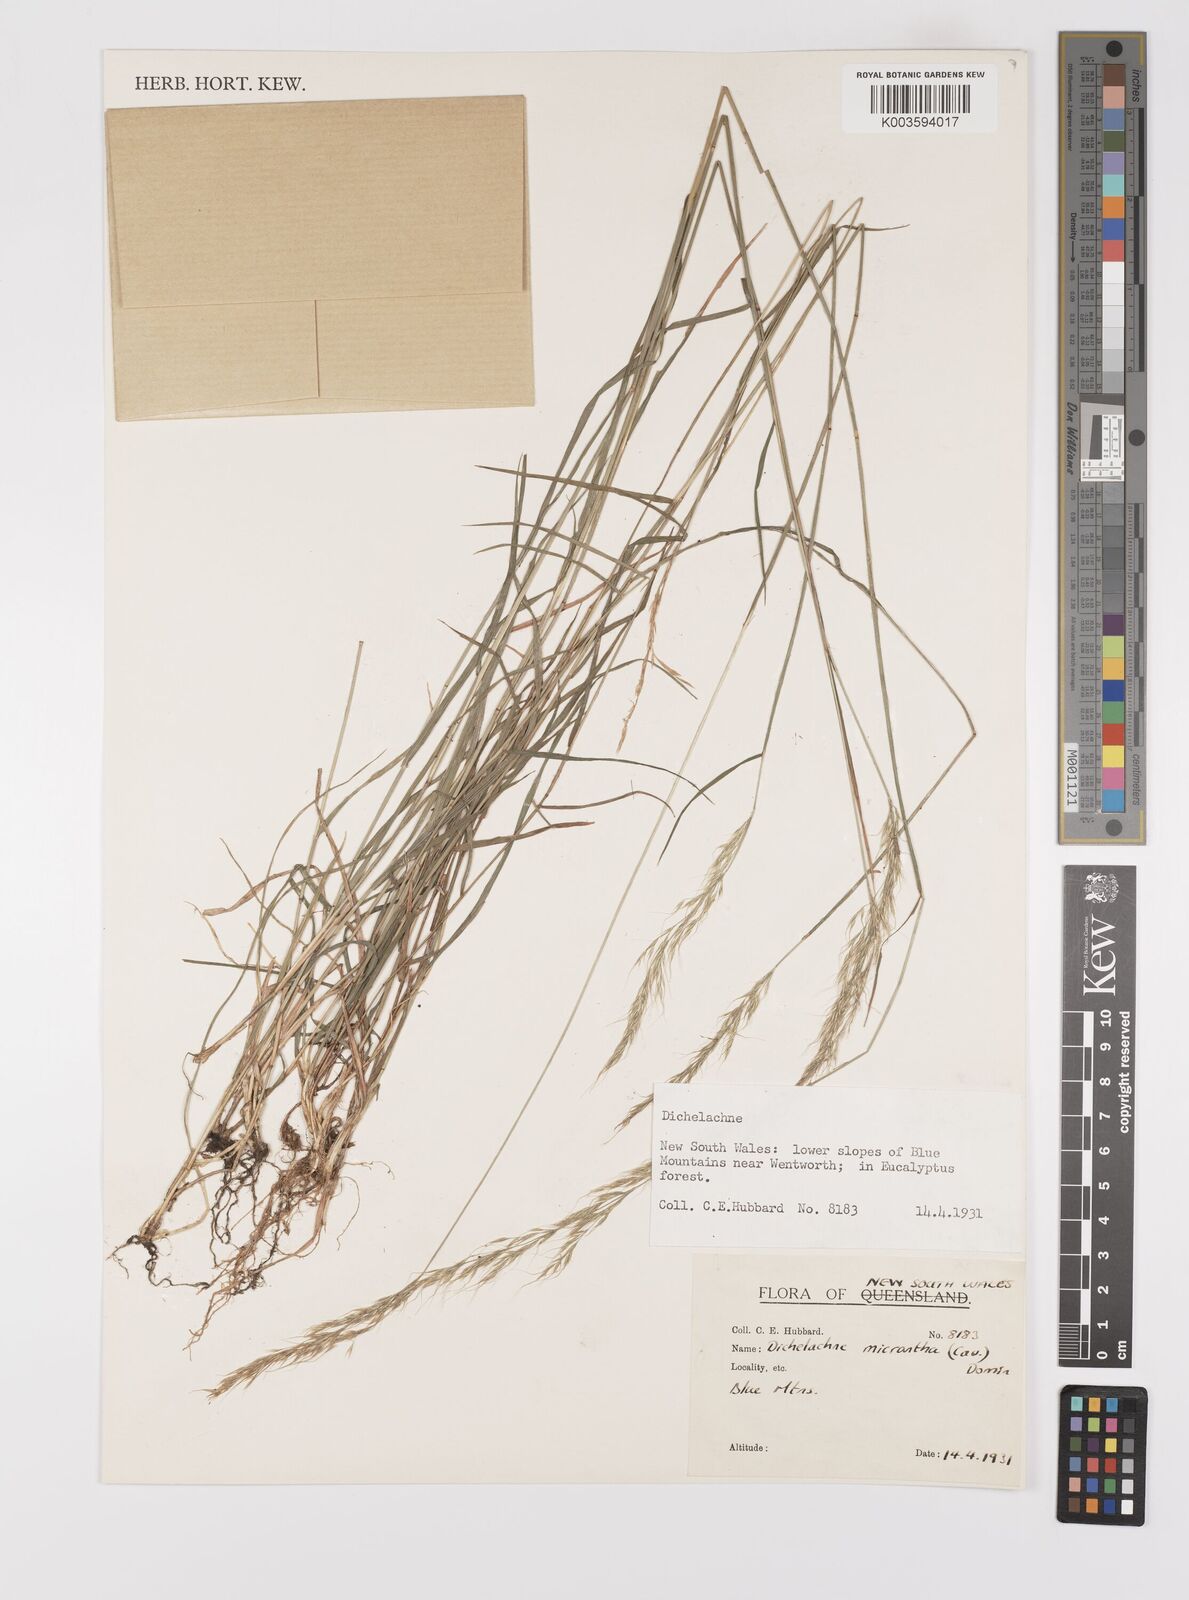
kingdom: Plantae
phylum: Tracheophyta
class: Liliopsida
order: Poales
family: Poaceae
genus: Dichelachne
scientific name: Dichelachne micrantha
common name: Plumegrass
